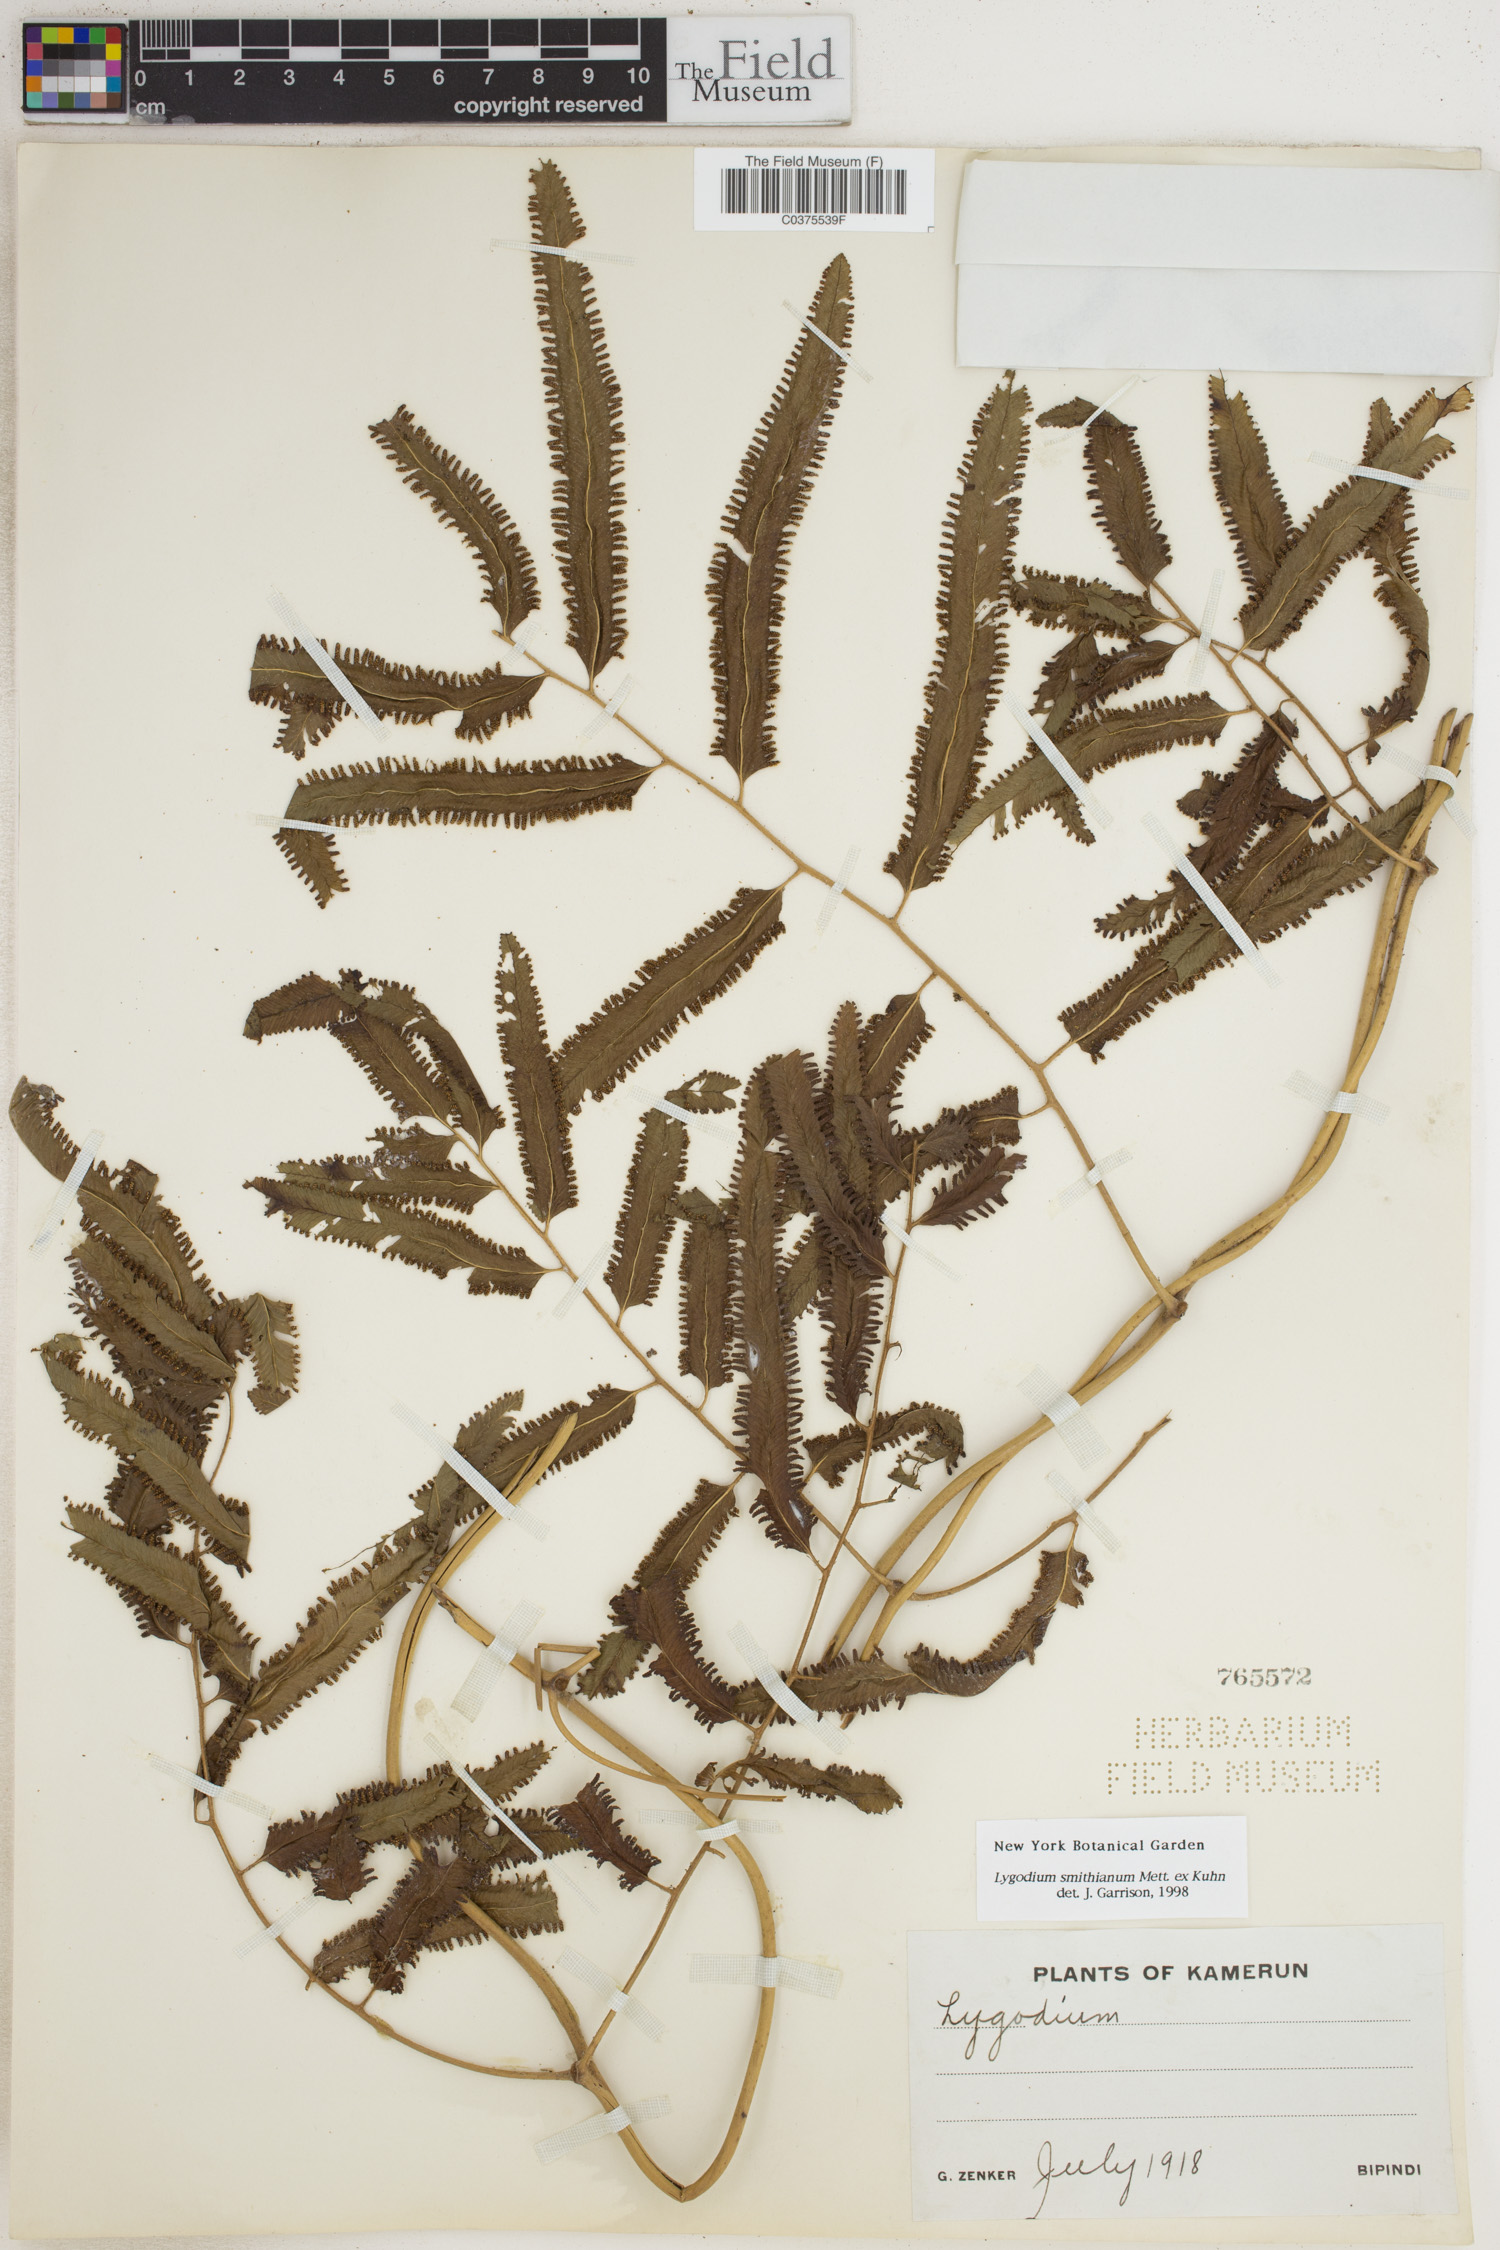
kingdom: Plantae
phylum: Tracheophyta
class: Polypodiopsida
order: Schizaeales
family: Lygodiaceae
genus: Lygodium
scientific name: Lygodium smithianum
